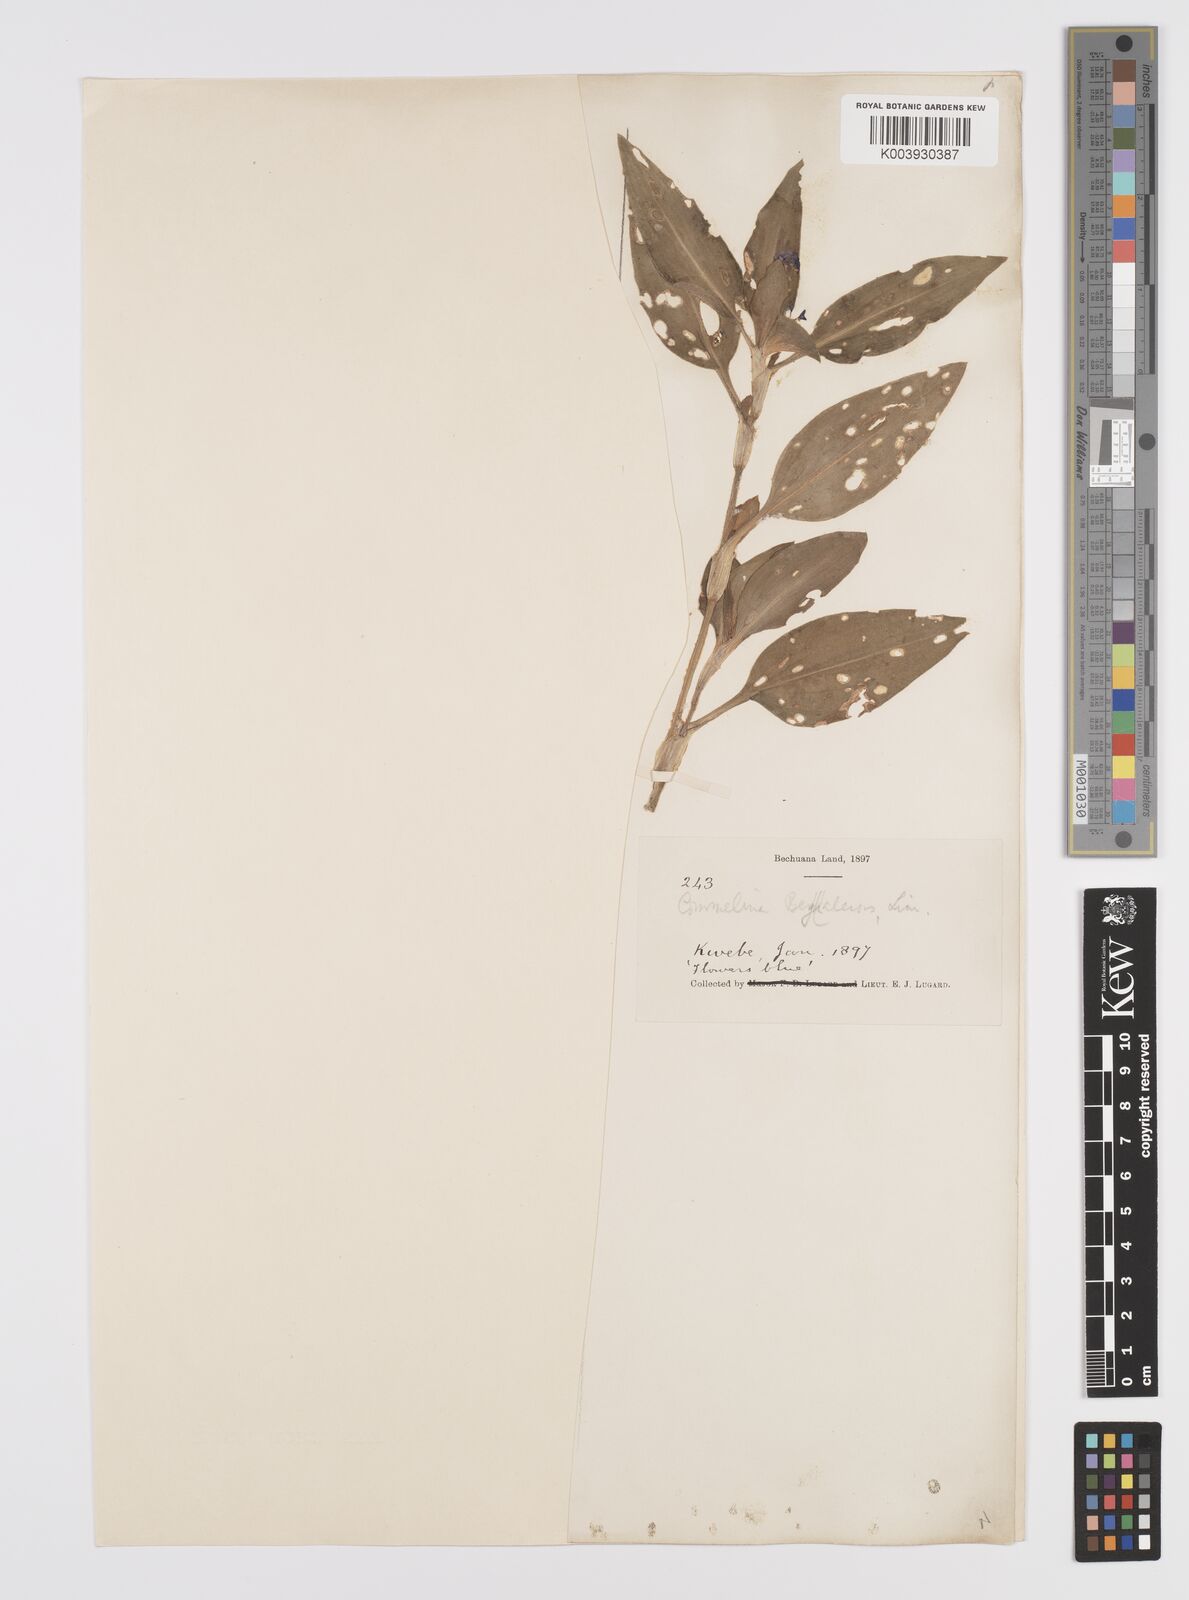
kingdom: Plantae
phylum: Tracheophyta
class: Liliopsida
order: Commelinales
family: Commelinaceae
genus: Commelina
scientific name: Commelina benghalensis
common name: Jio
